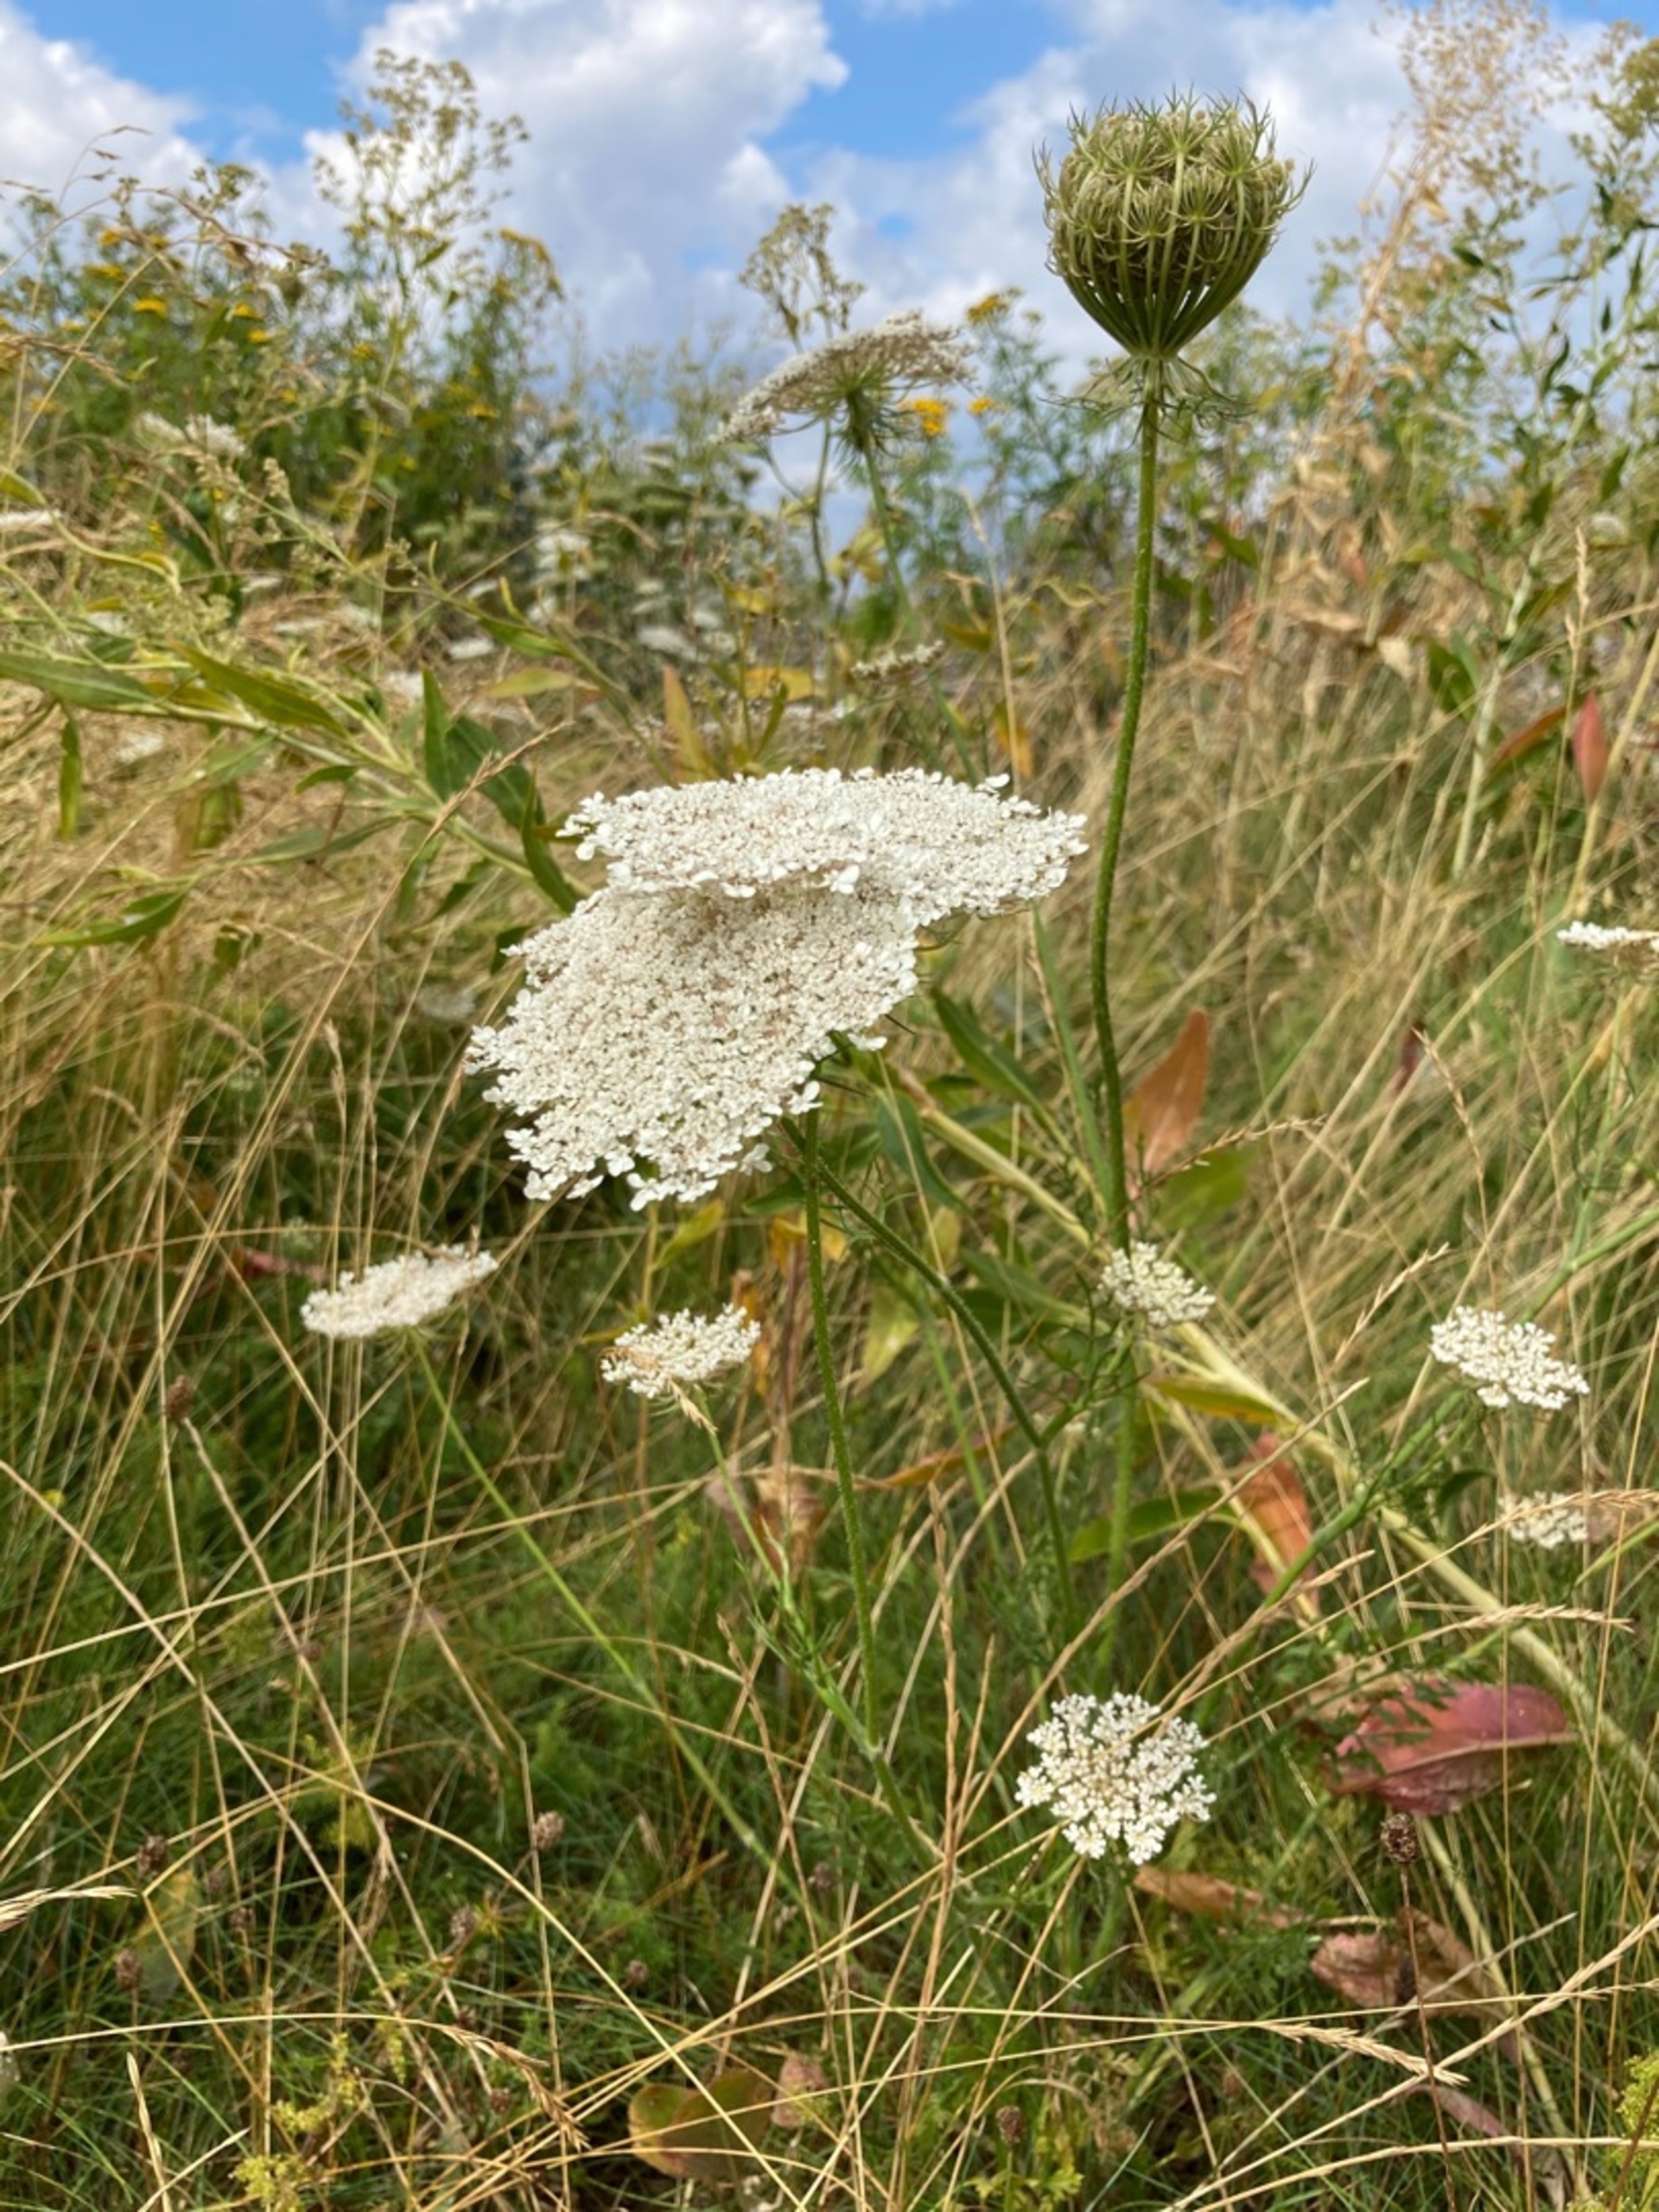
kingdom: Plantae
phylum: Tracheophyta
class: Magnoliopsida
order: Apiales
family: Apiaceae
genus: Daucus
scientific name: Daucus carota
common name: Vild gulerod
